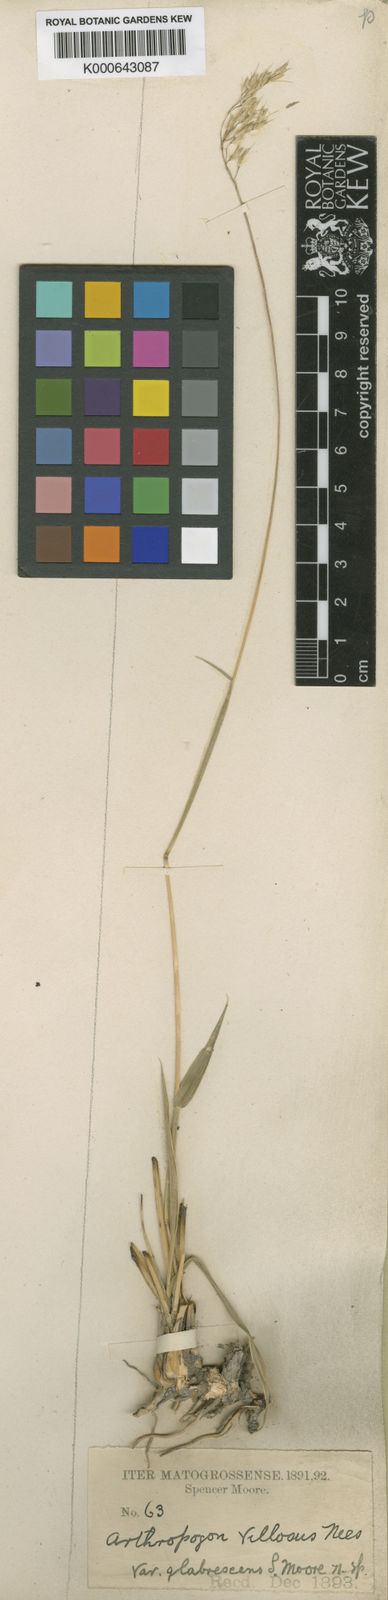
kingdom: Plantae
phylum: Tracheophyta
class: Liliopsida
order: Poales
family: Poaceae
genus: Arthropogon
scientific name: Arthropogon villosus
